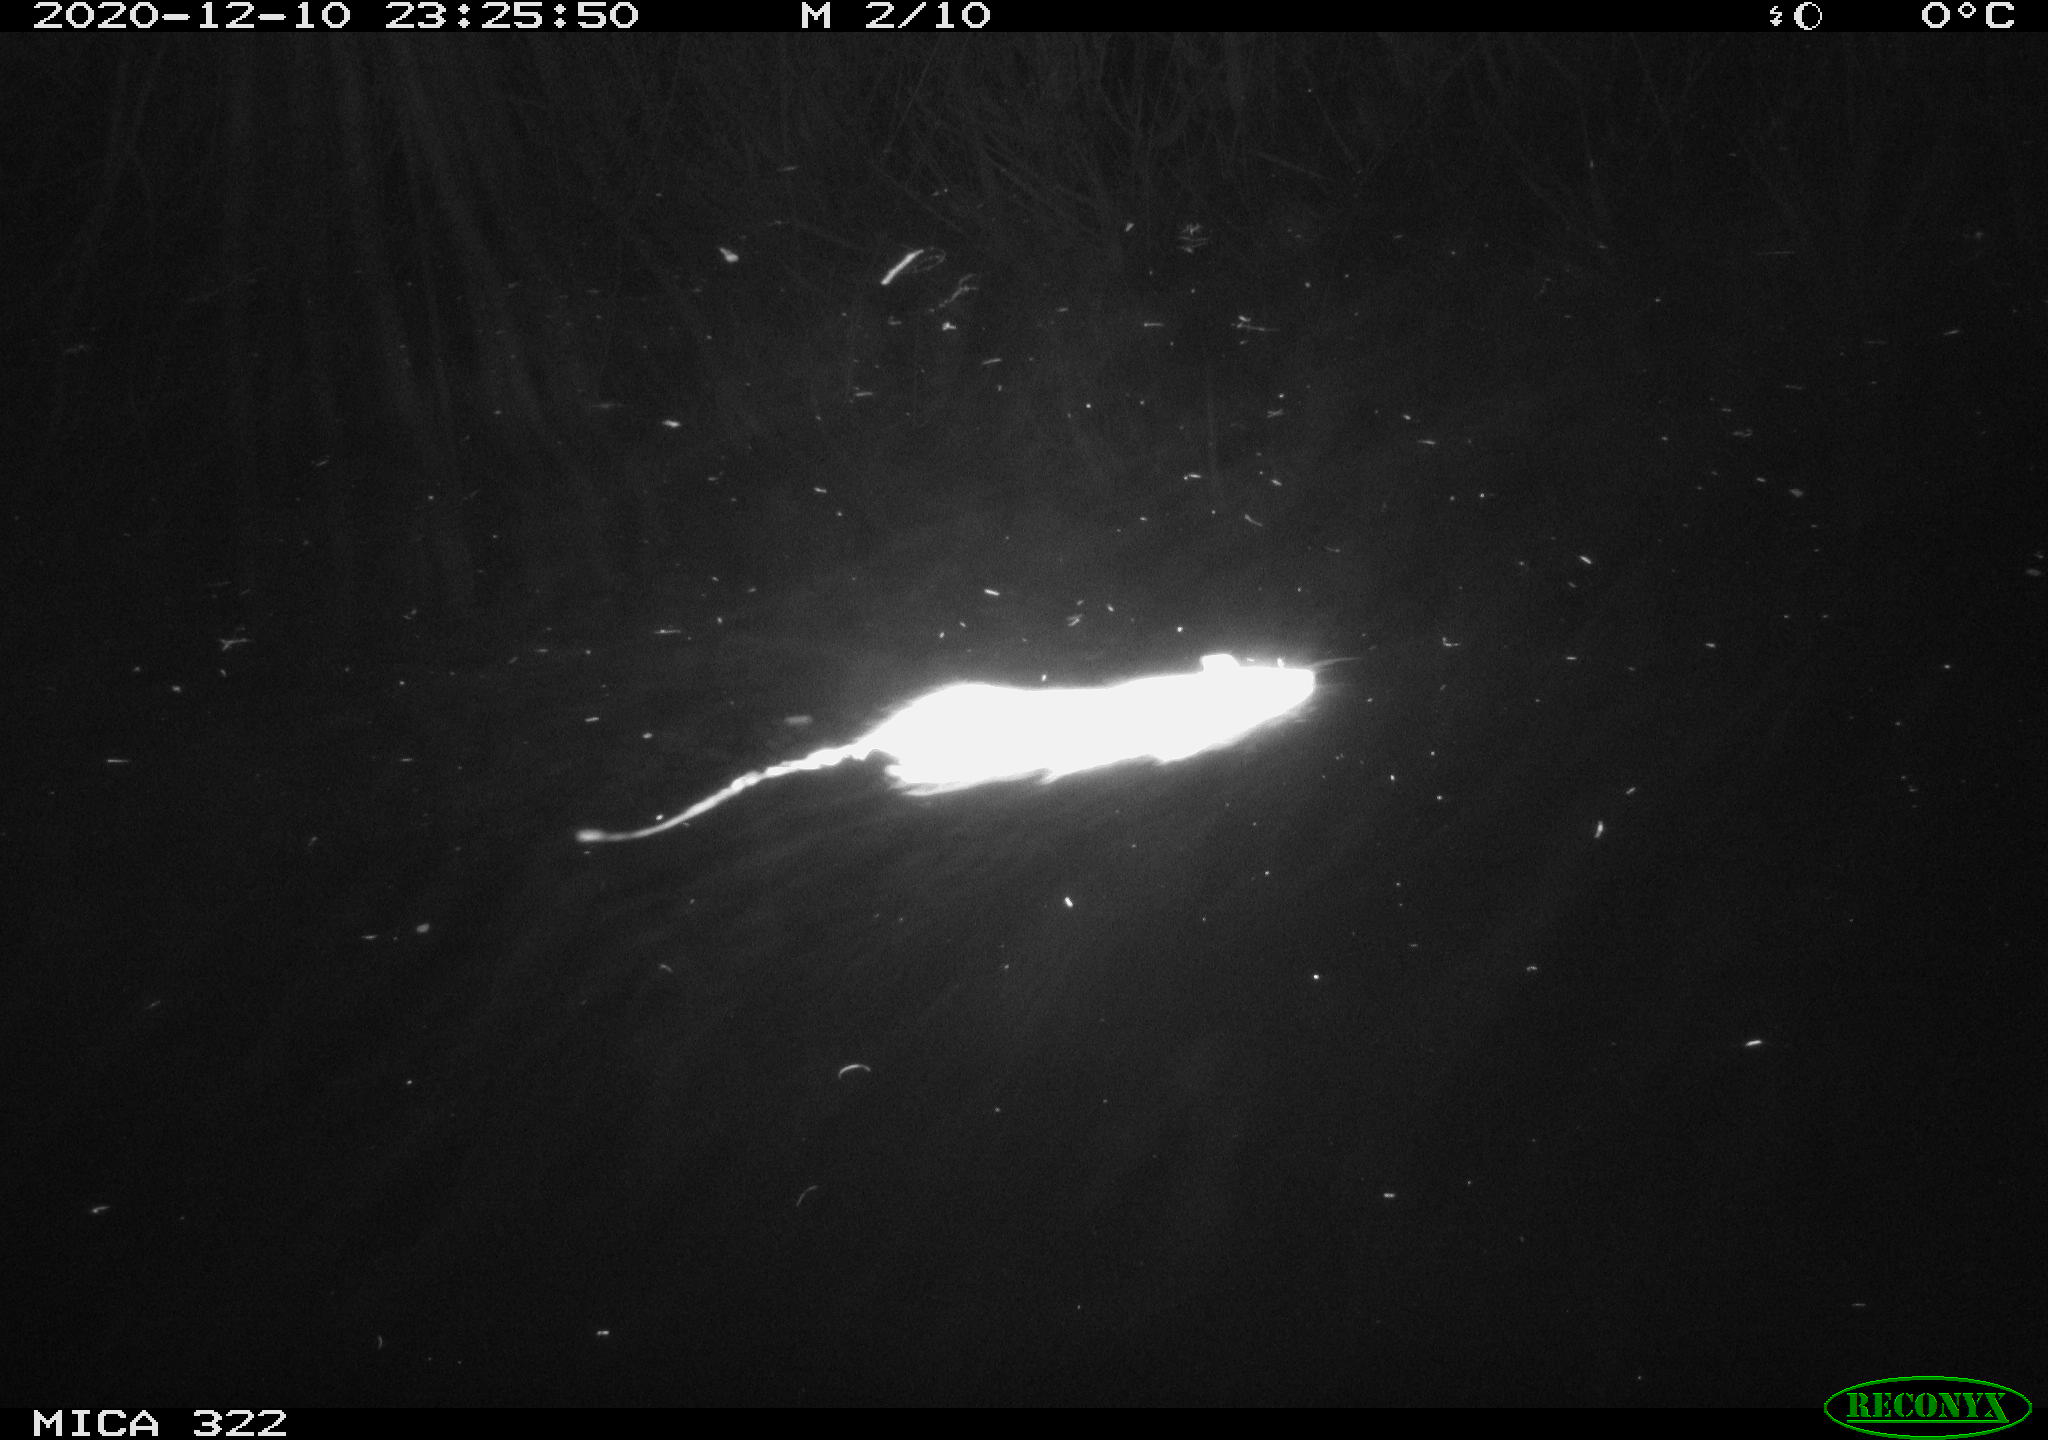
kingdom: Animalia
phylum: Chordata
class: Mammalia
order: Rodentia
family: Muridae
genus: Rattus
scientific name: Rattus norvegicus
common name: Brown rat
